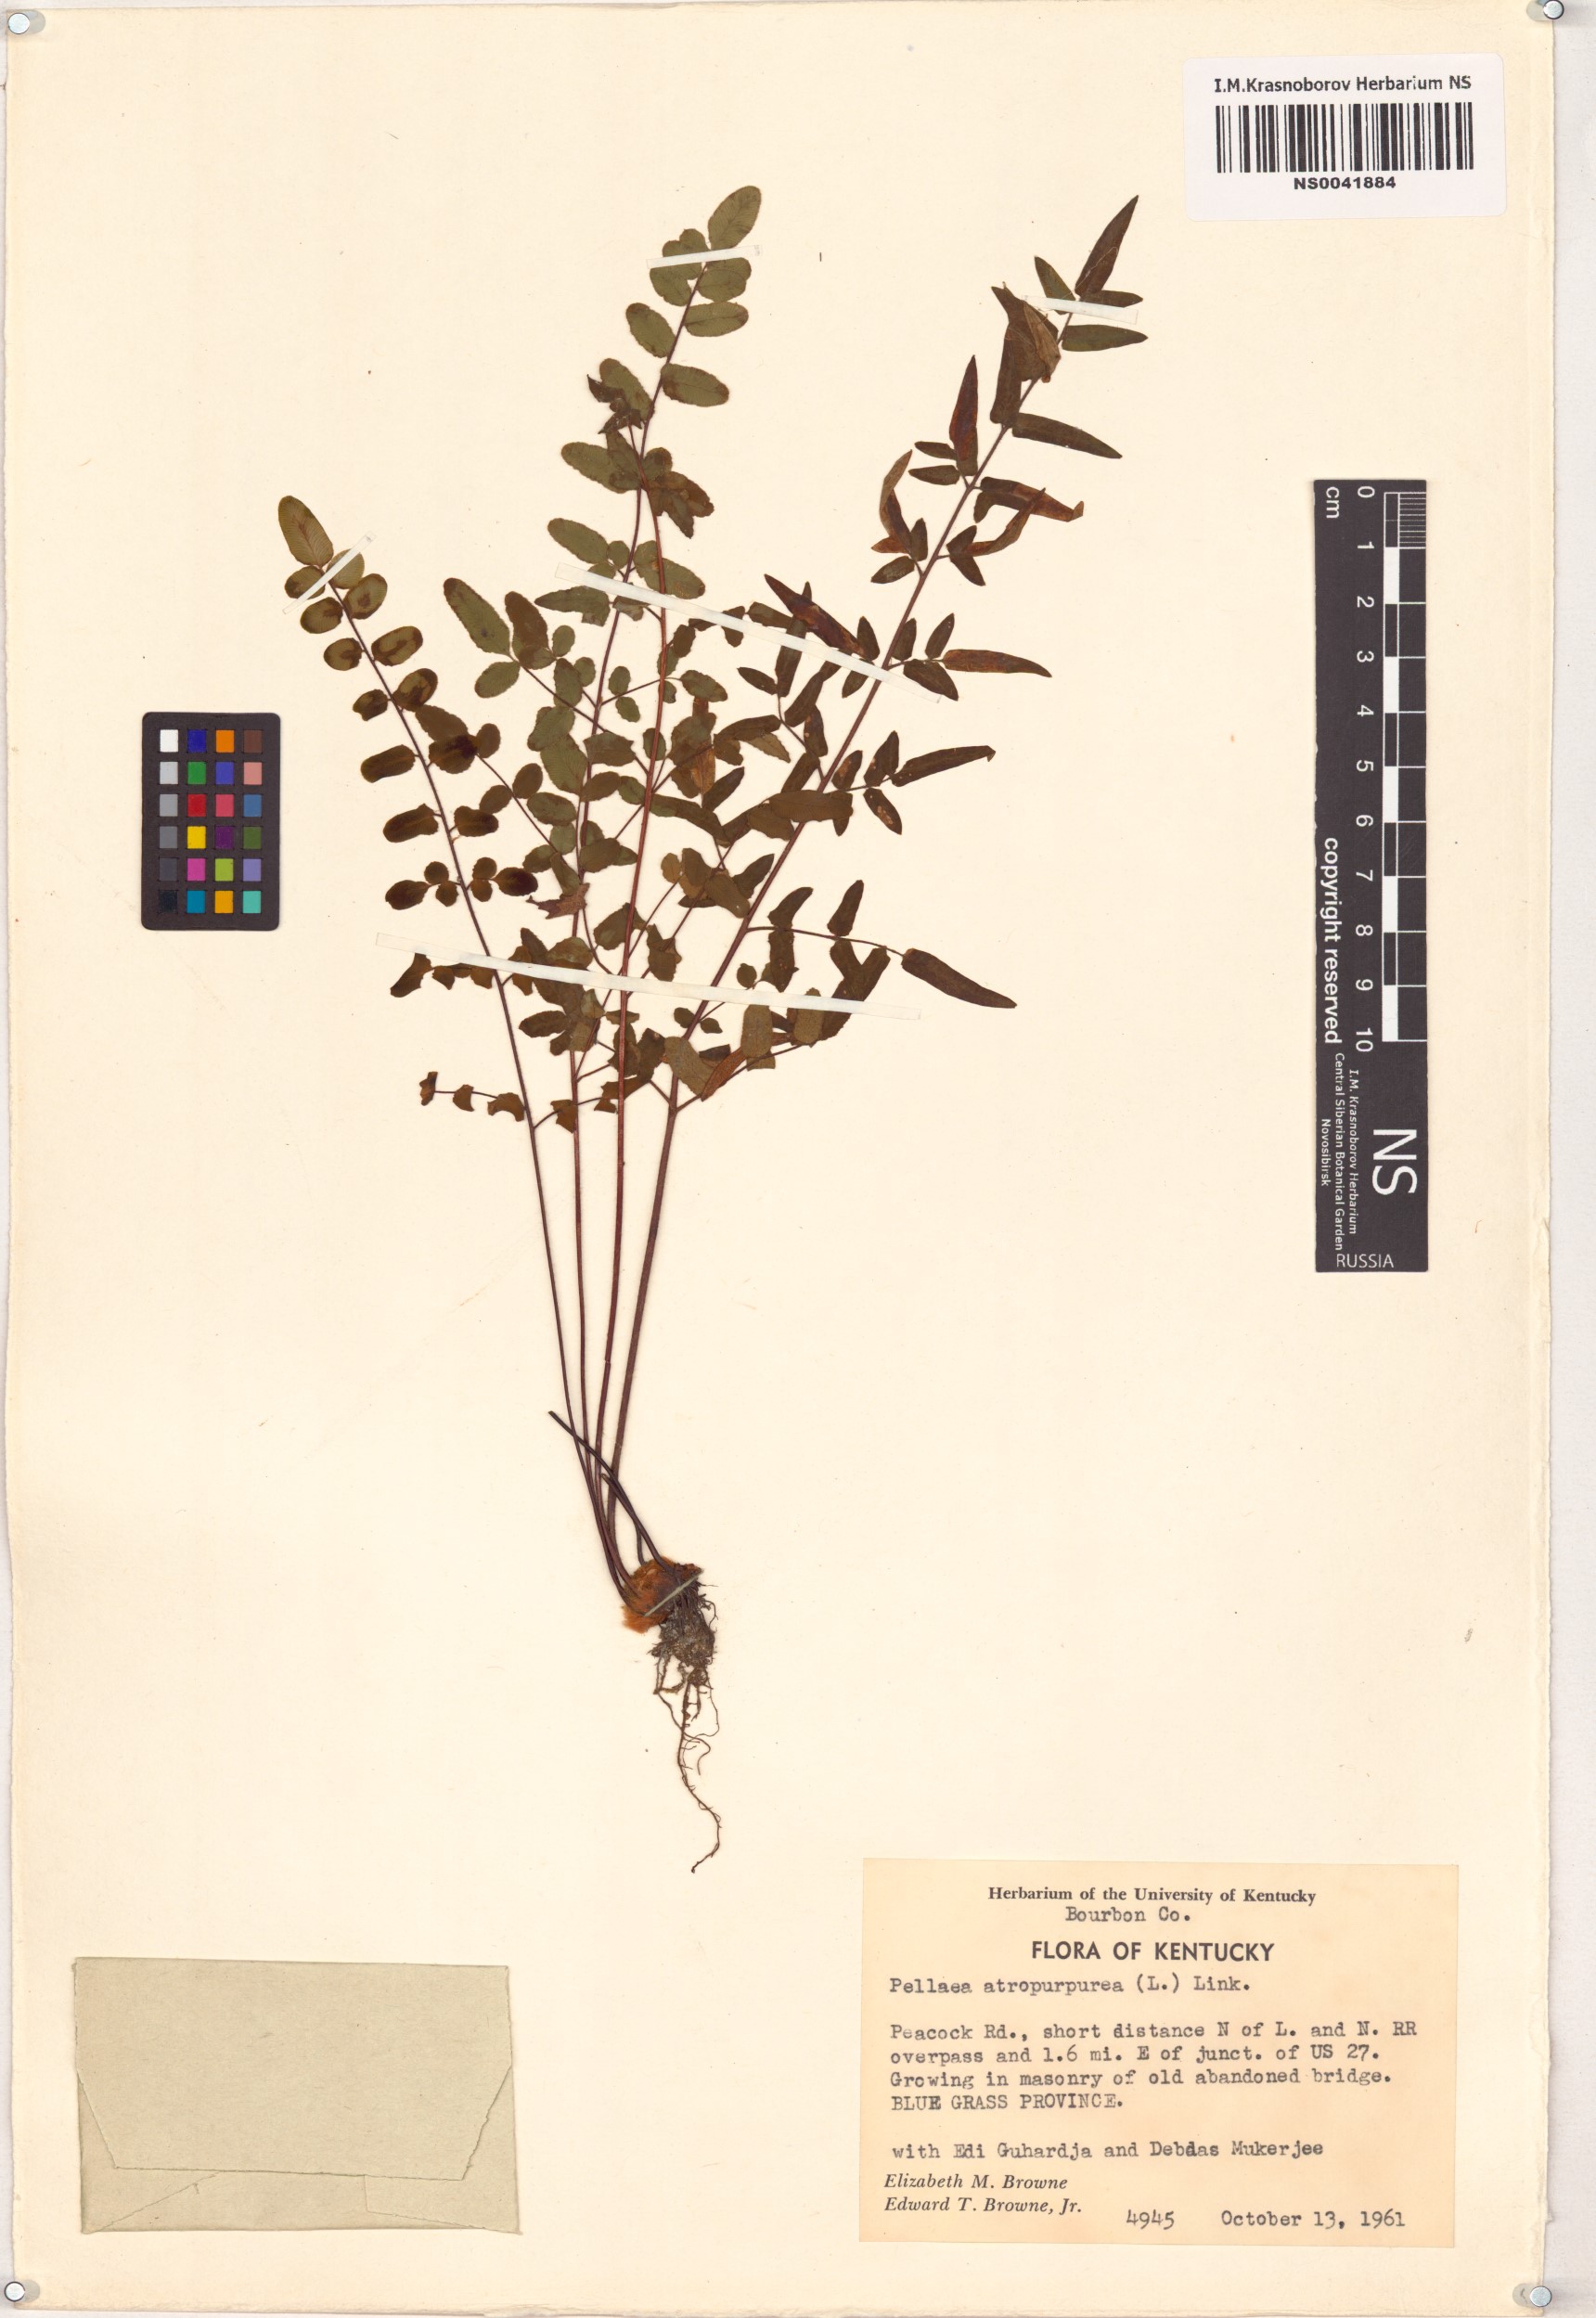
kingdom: Plantae
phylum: Tracheophyta
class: Polypodiopsida
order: Polypodiales
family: Pteridaceae
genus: Pellaea
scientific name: Pellaea atropurpurea
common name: Hairy cliffbrake
